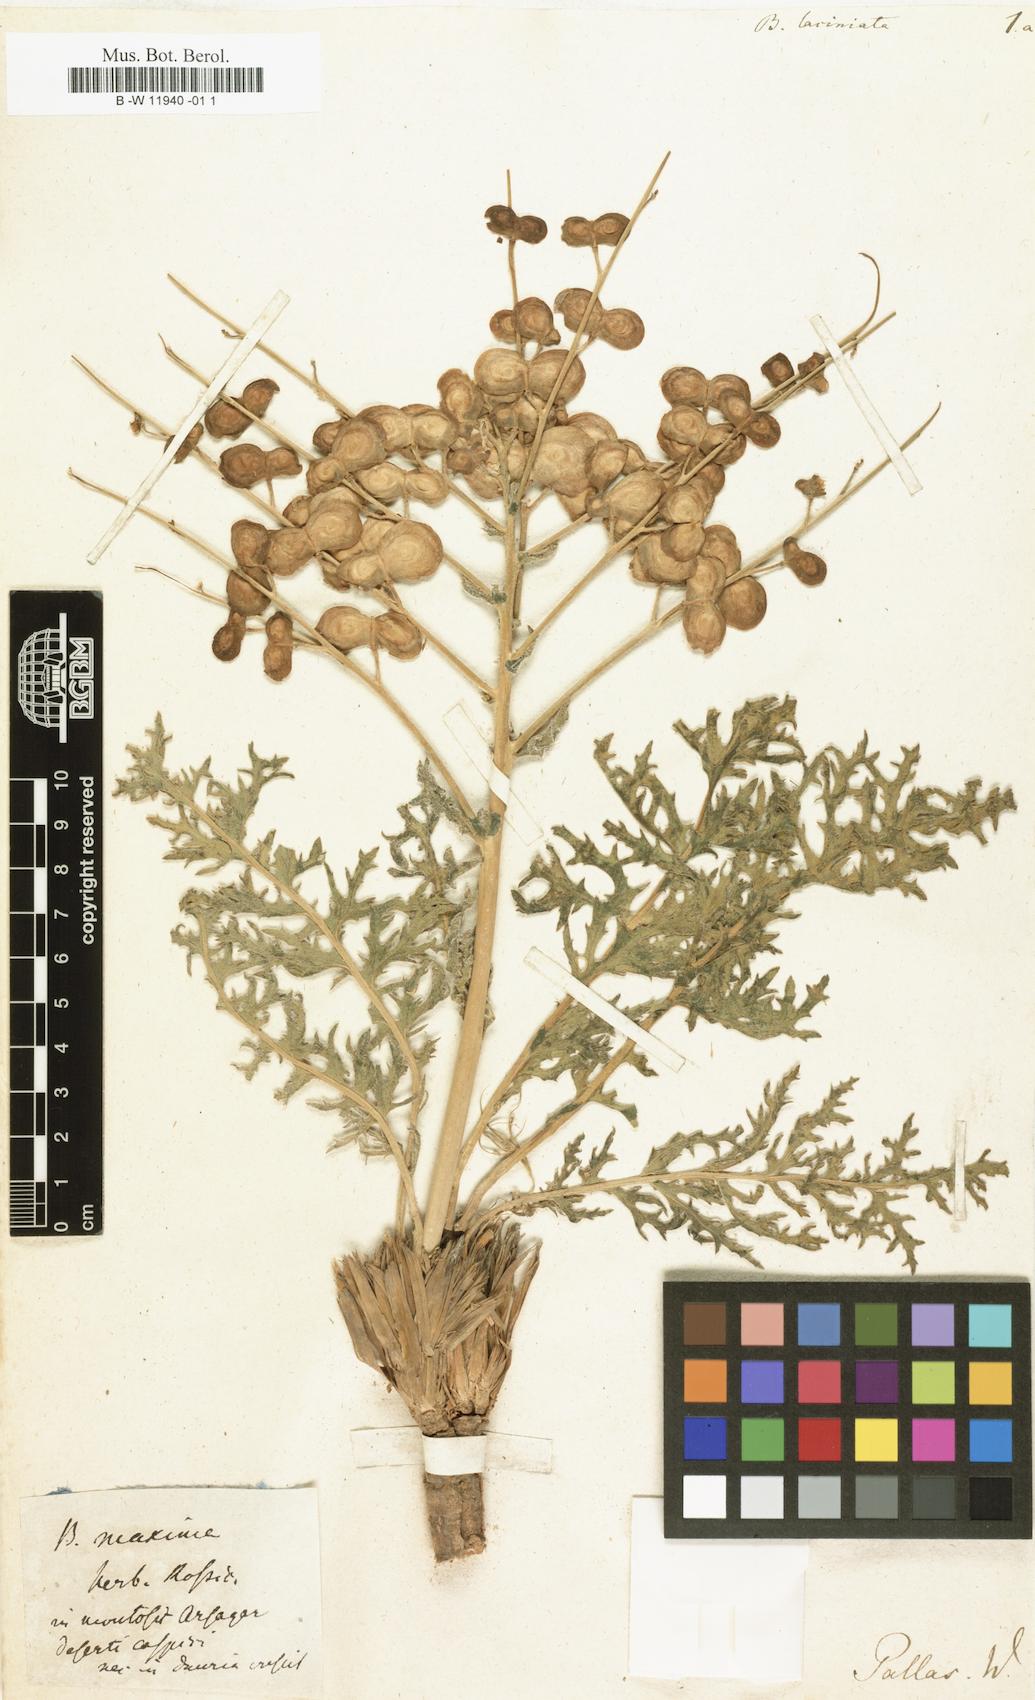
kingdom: Plantae
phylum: Tracheophyta
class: Magnoliopsida
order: Brassicales
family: Brassicaceae
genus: Megacarpaea
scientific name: Megacarpaea megalocarpa
